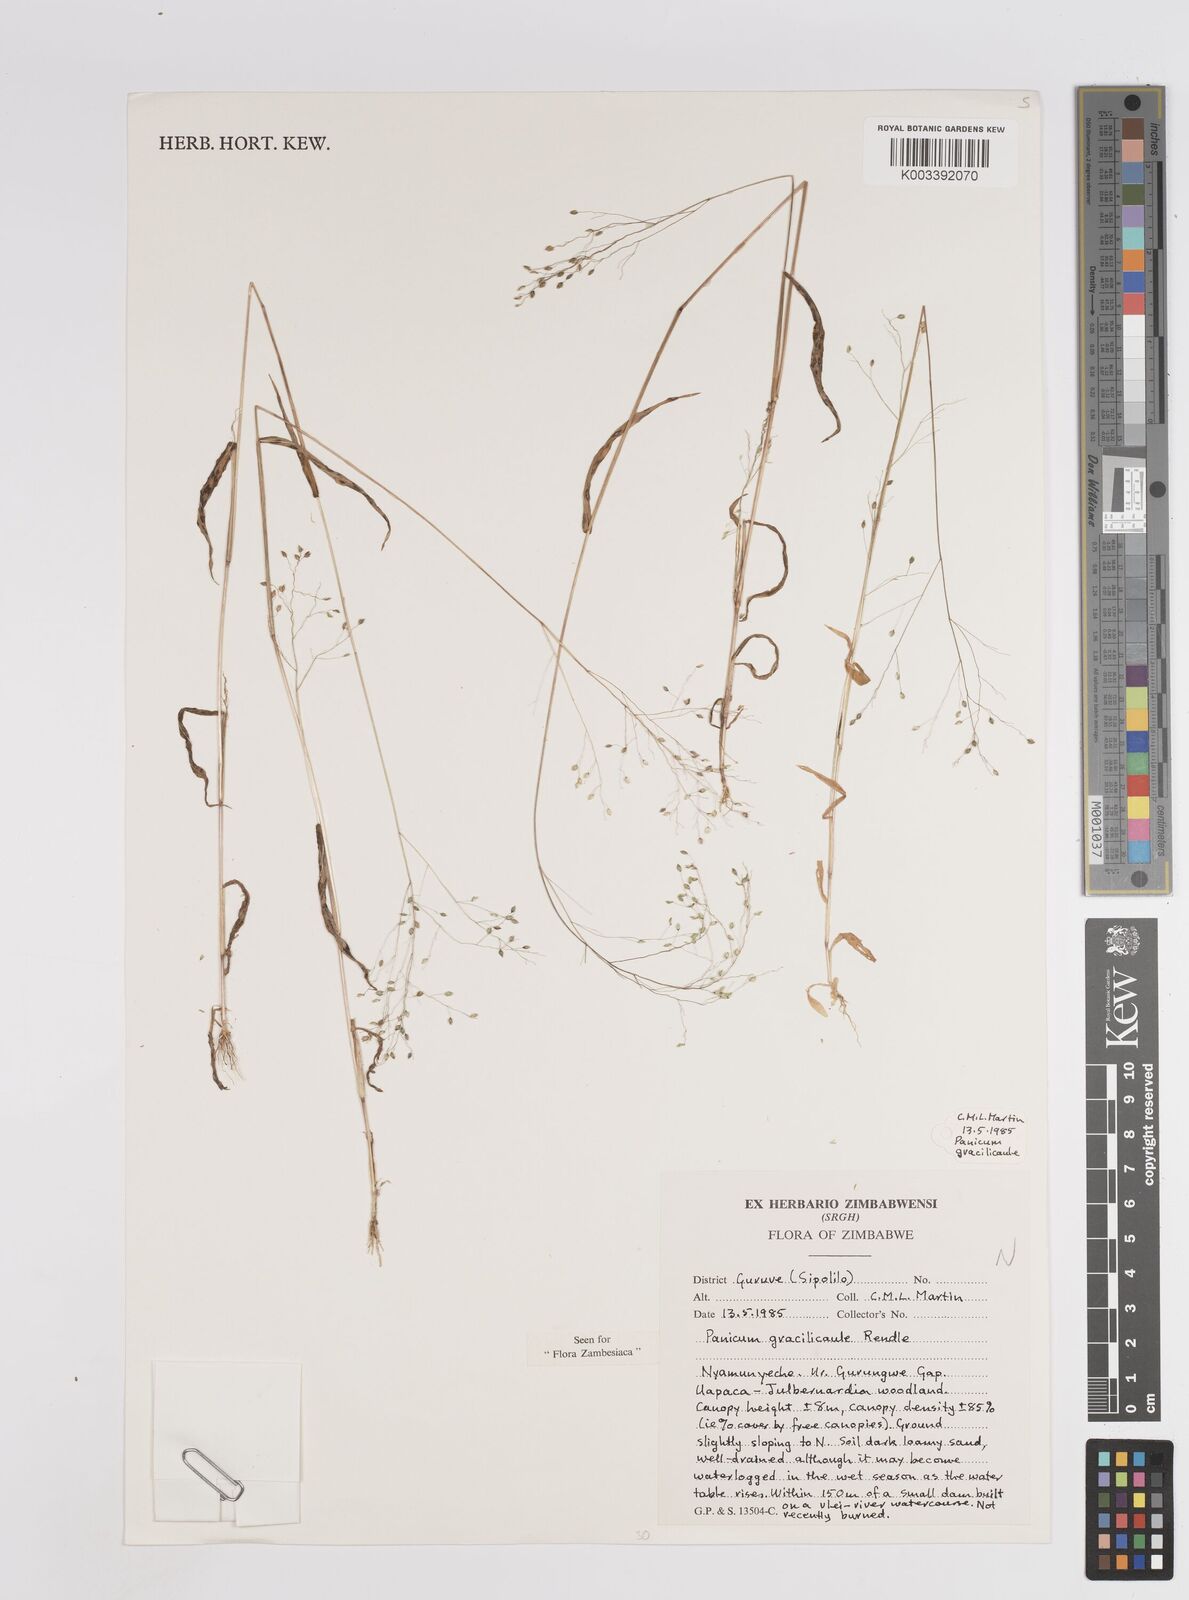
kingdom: Plantae
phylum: Tracheophyta
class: Liliopsida
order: Poales
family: Poaceae
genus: Trichanthecium
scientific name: Trichanthecium gracilicaule
